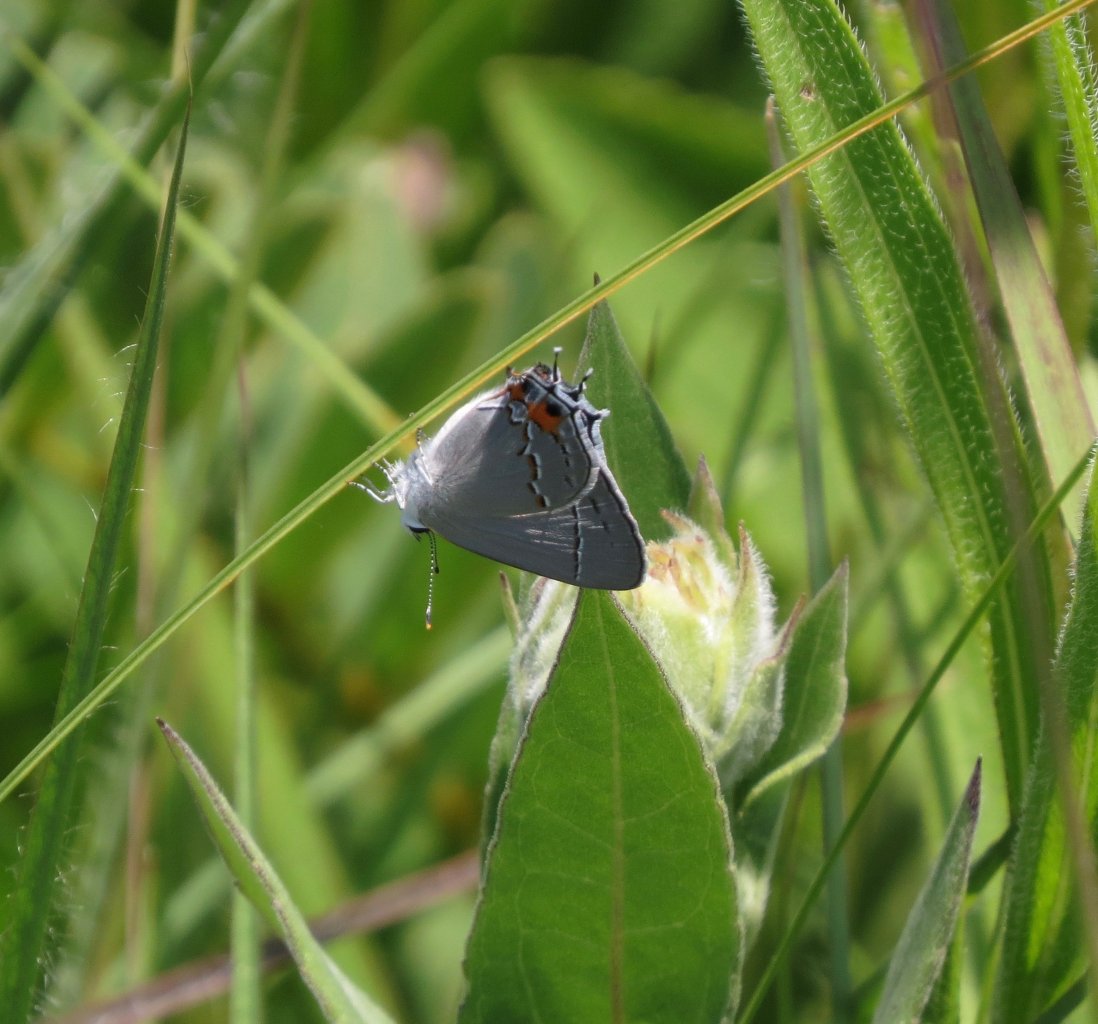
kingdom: Animalia
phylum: Arthropoda
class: Insecta
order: Lepidoptera
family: Lycaenidae
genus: Strymon
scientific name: Strymon melinus
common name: Gray Hairstreak
